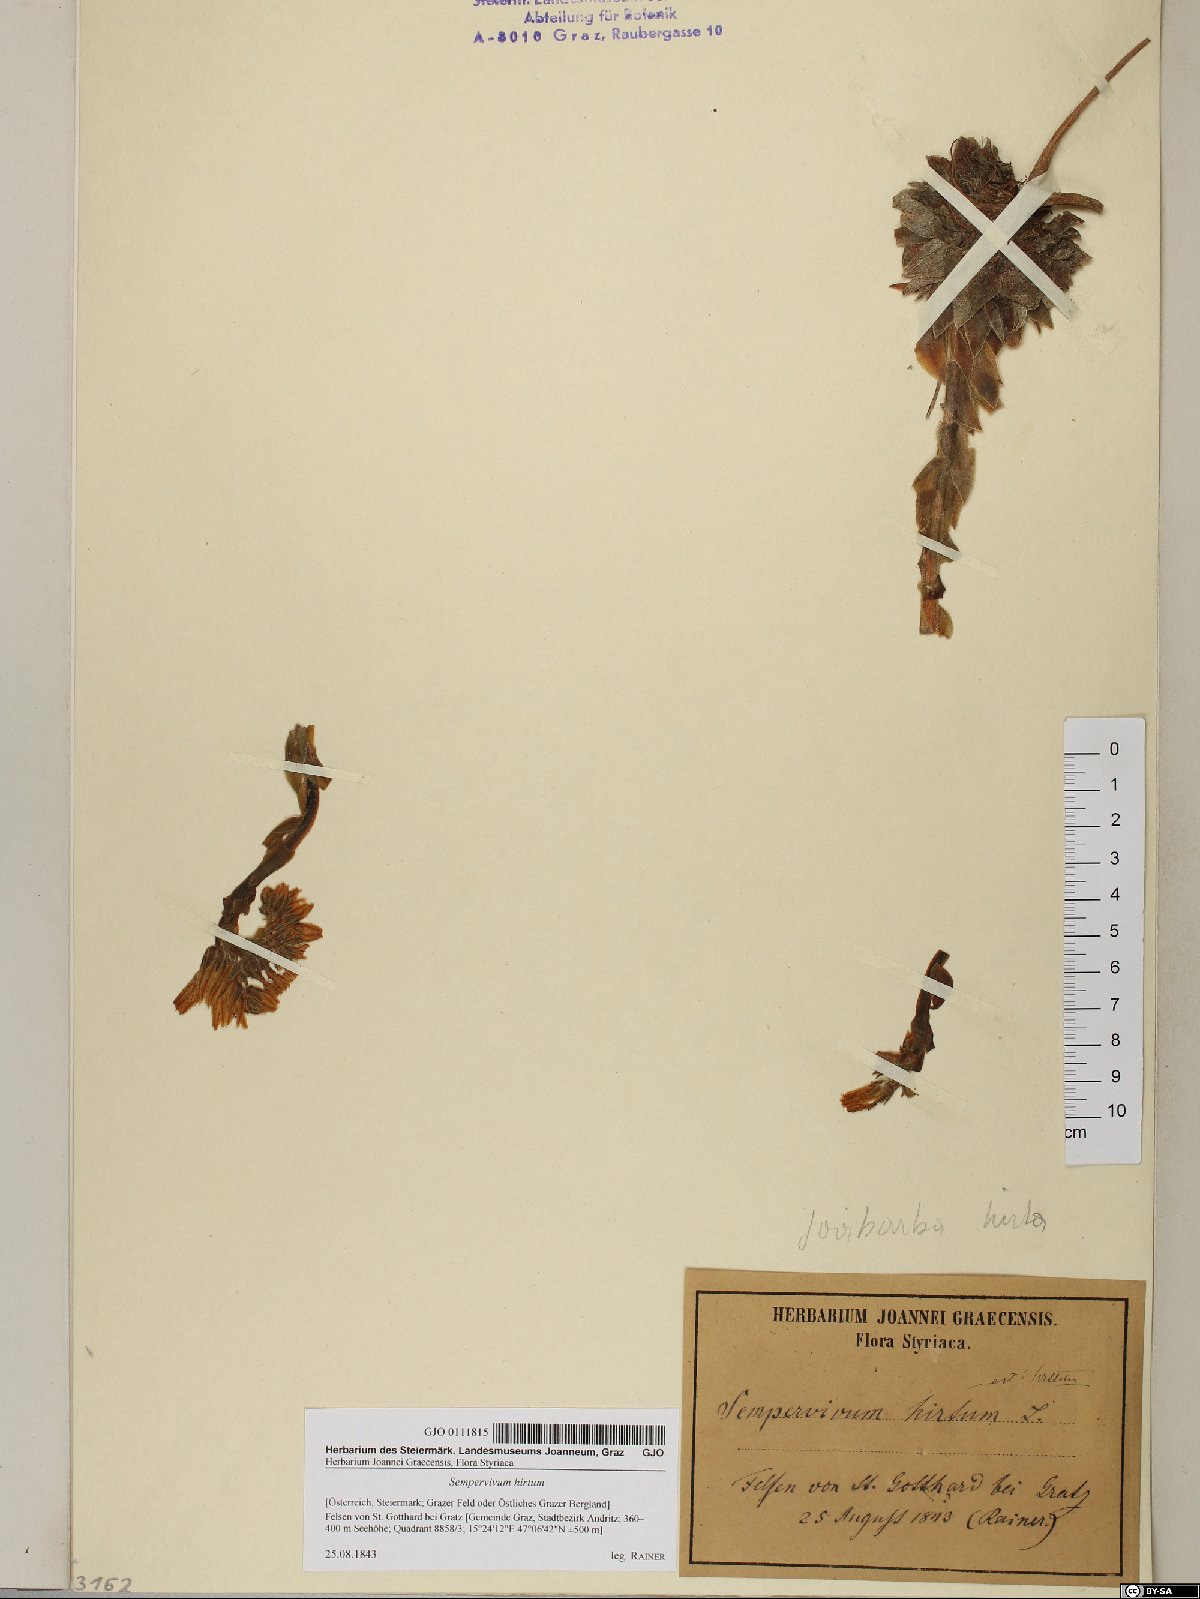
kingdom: Plantae
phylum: Tracheophyta
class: Magnoliopsida
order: Saxifragales
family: Crassulaceae
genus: Sempervivum
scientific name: Sempervivum globiferum
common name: Rolling hen-and-chicks
